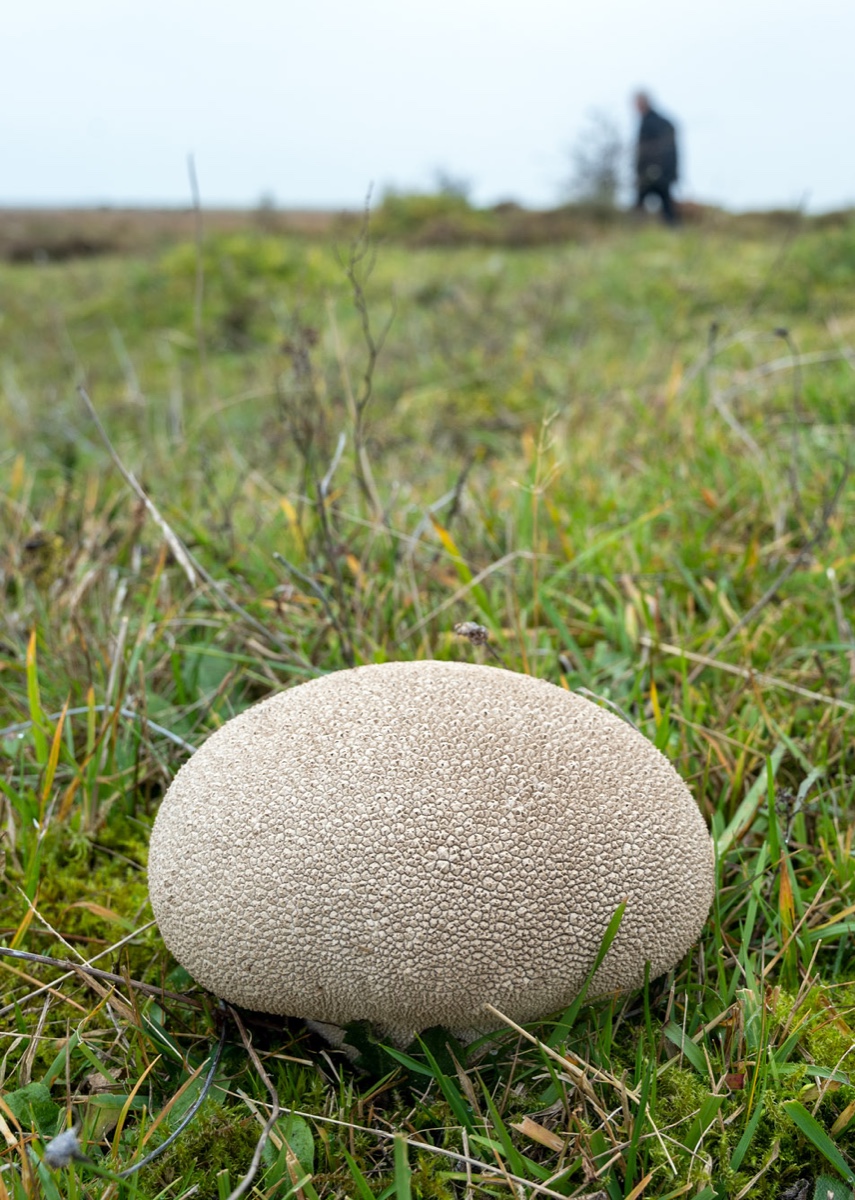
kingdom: Fungi
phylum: Basidiomycota
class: Agaricomycetes
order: Agaricales
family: Lycoperdaceae
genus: Bovistella
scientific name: Bovistella utriformis
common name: skællet støvbold
